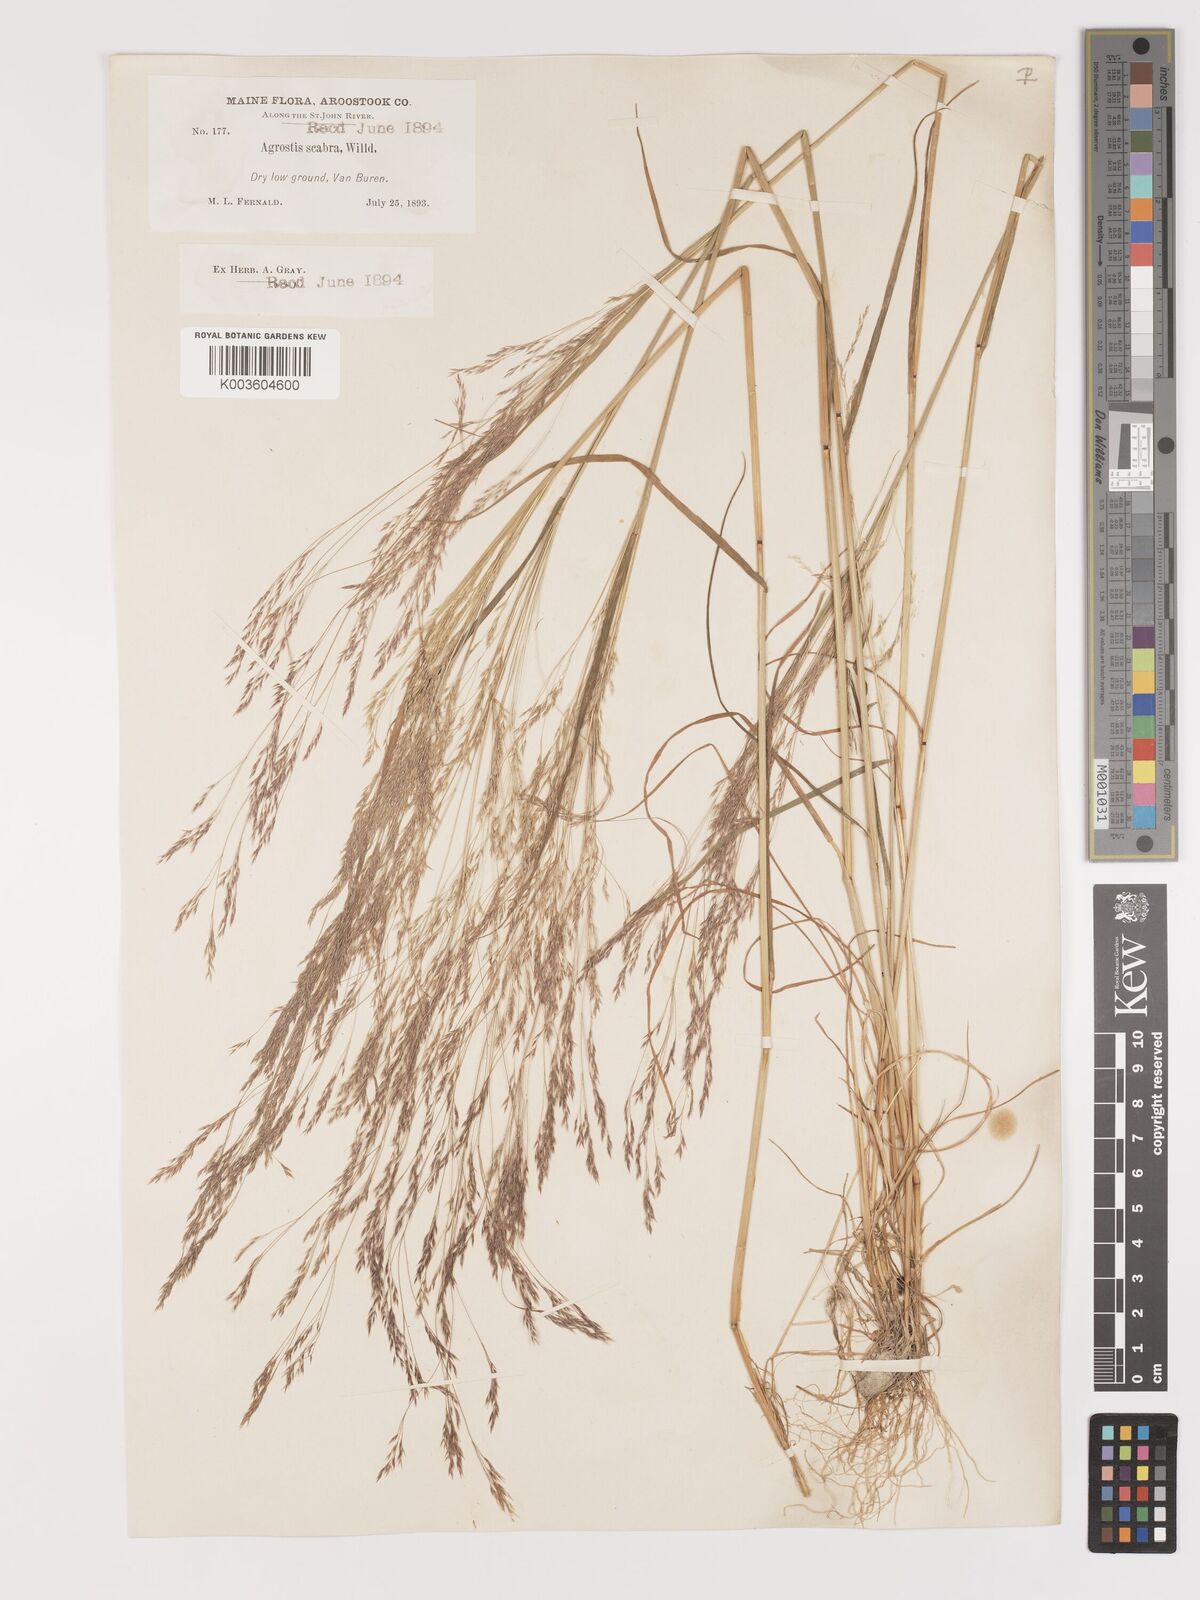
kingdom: Plantae
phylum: Tracheophyta
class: Liliopsida
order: Poales
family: Poaceae
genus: Agrostis
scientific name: Agrostis hyemalis
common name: Small bent
